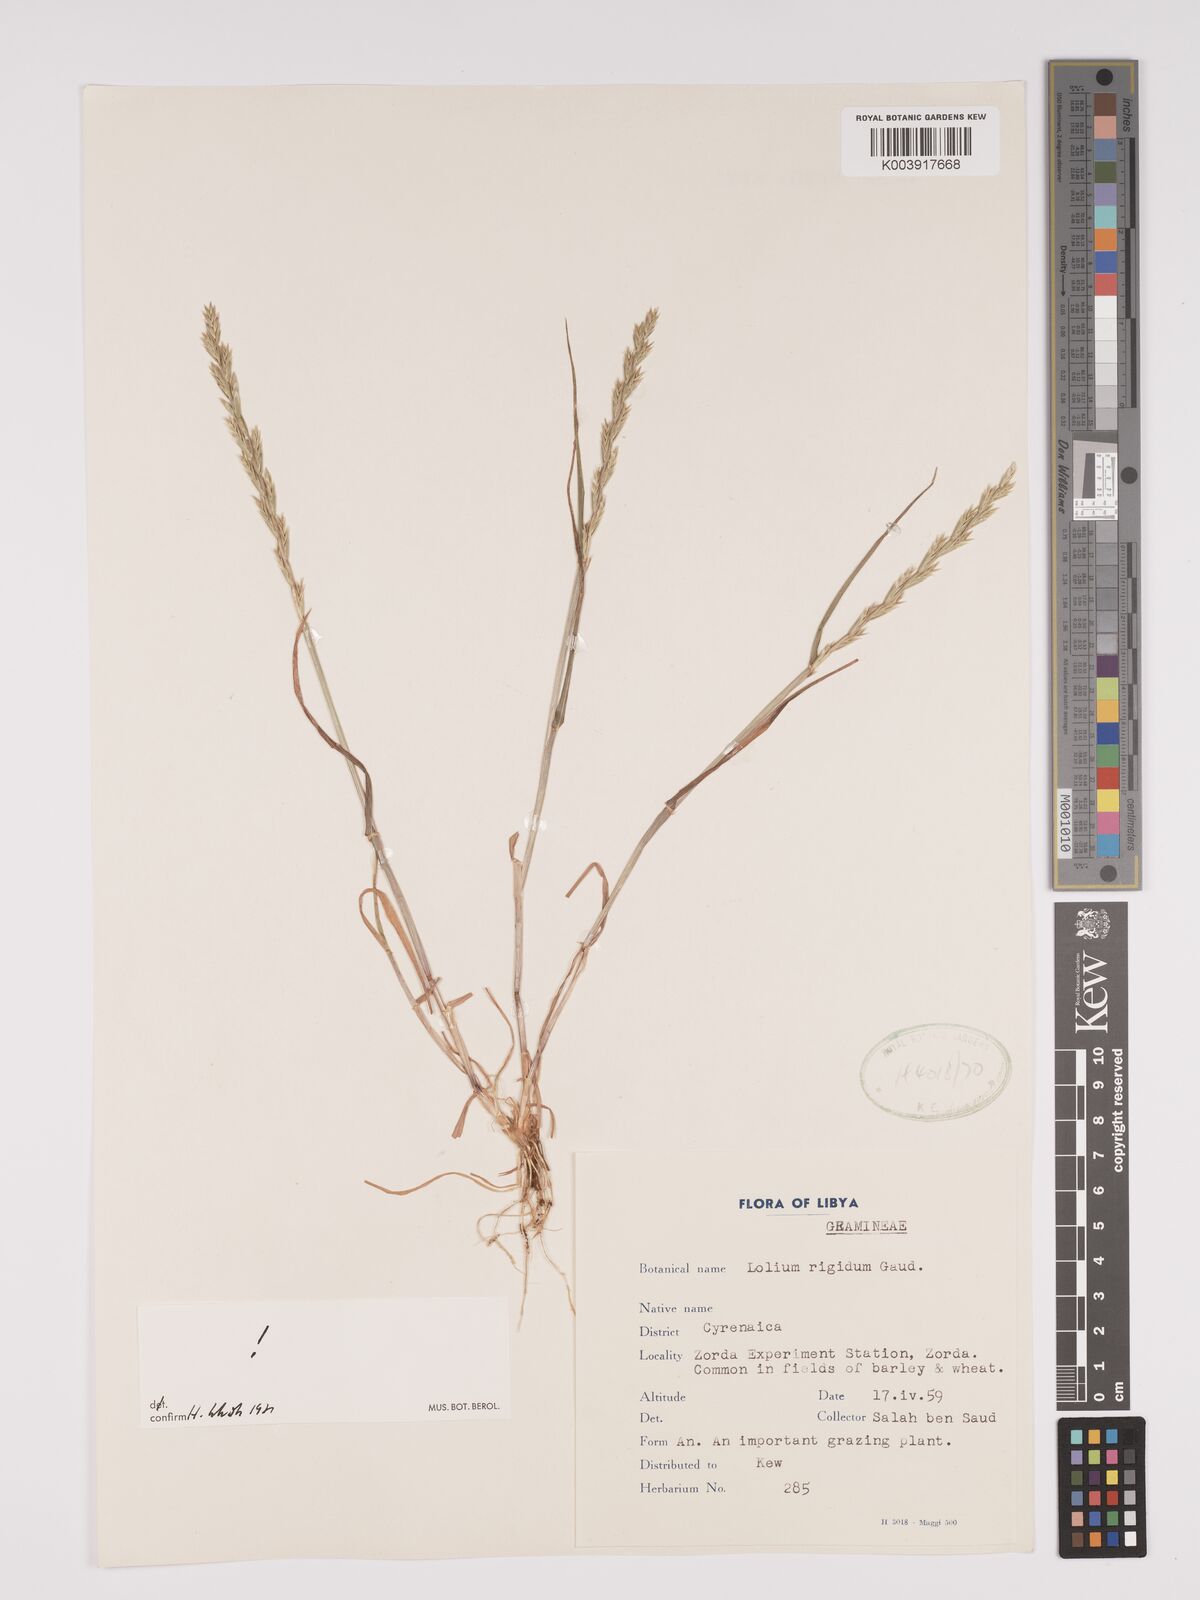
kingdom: Plantae
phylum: Tracheophyta
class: Liliopsida
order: Poales
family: Poaceae
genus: Lolium
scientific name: Lolium rigidum
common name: Wimmera ryegrass
